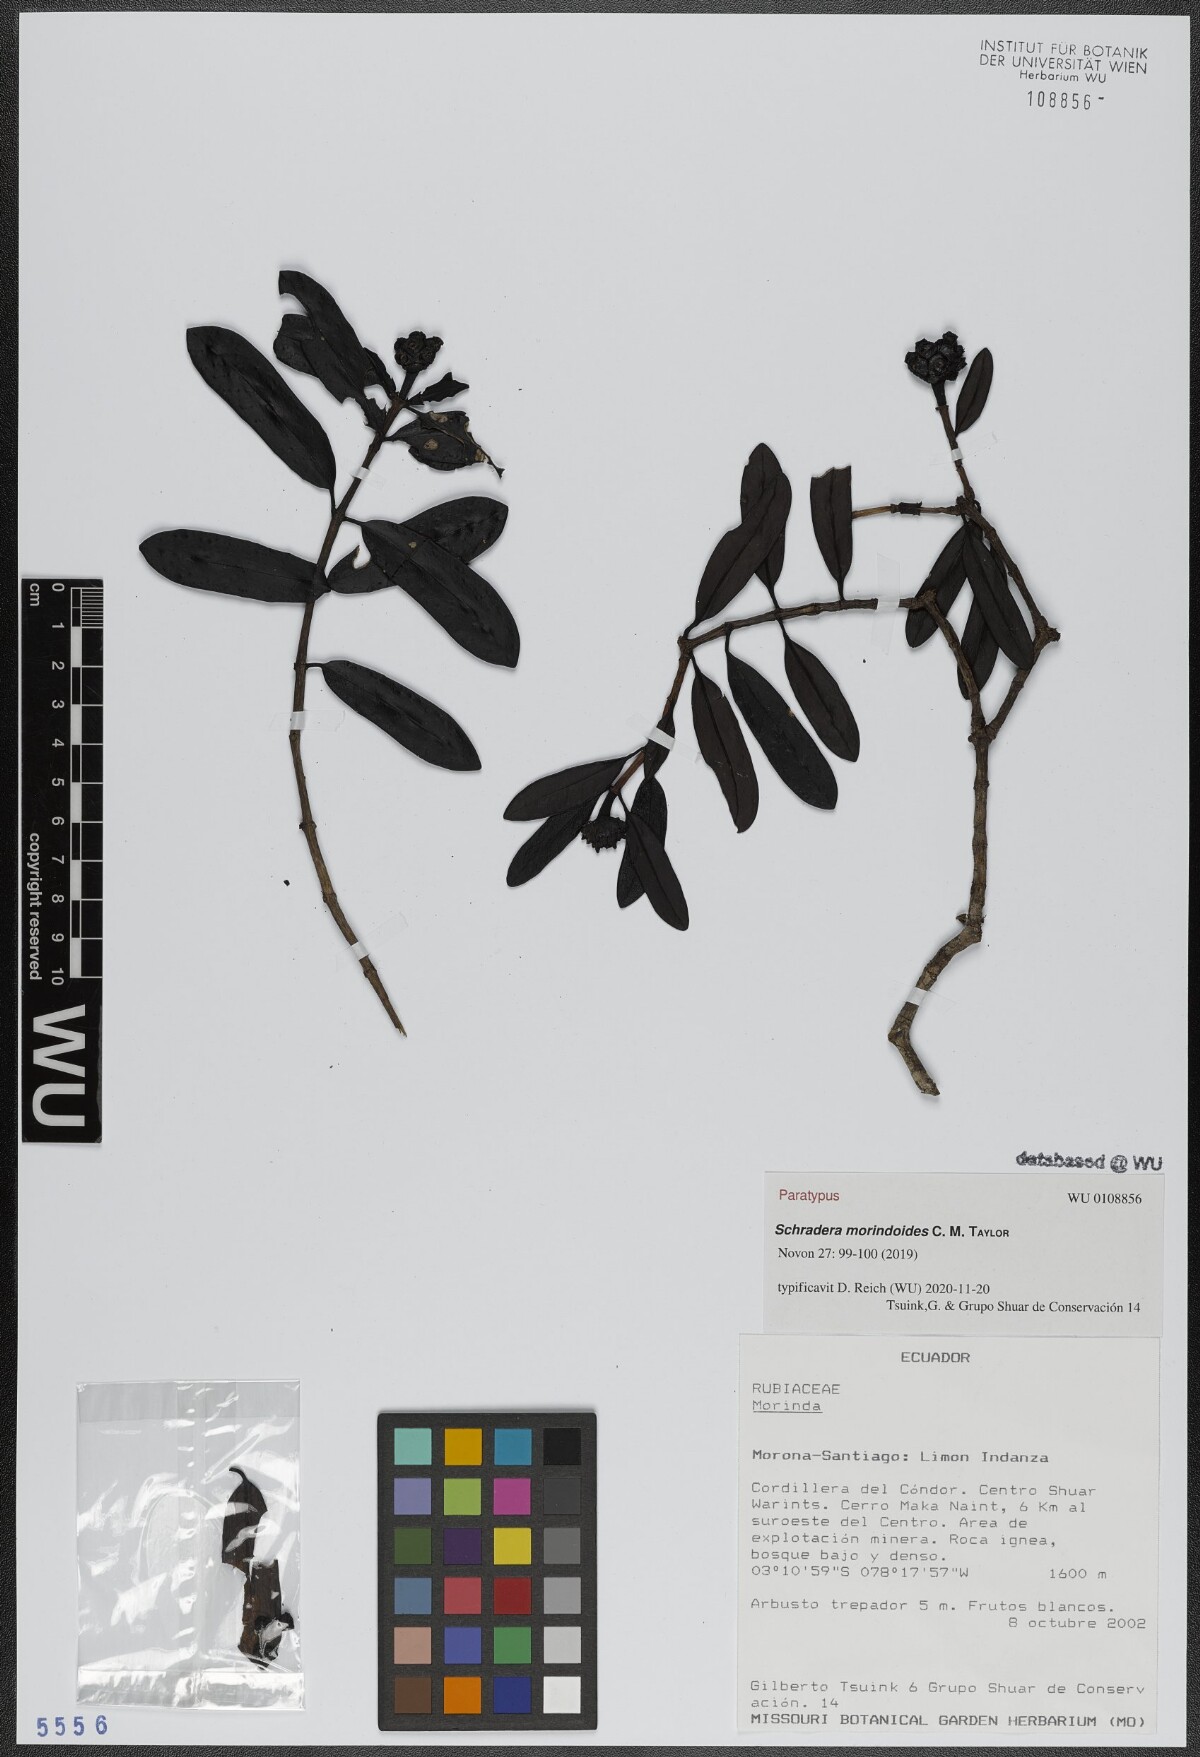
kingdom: Plantae
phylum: Tracheophyta
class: Magnoliopsida
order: Gentianales
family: Rubiaceae
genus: Schradera
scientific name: Schradera morindoides
